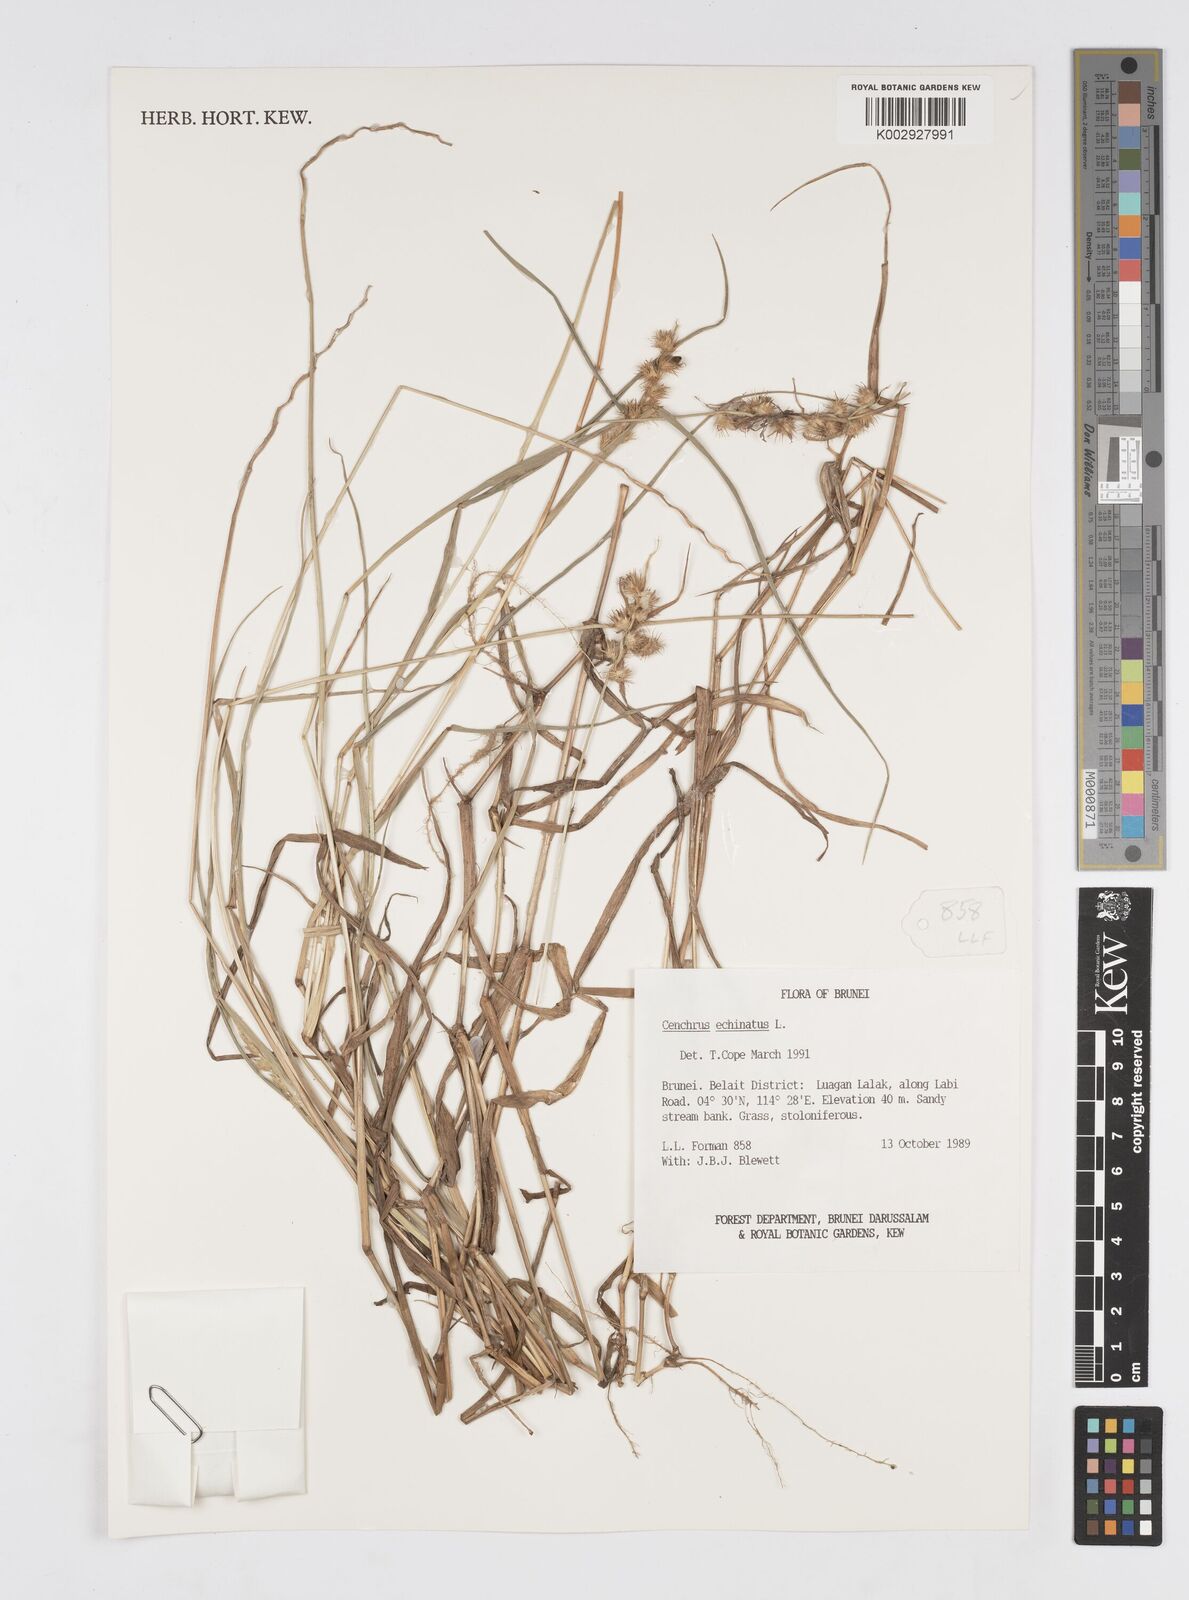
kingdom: Plantae
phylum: Tracheophyta
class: Liliopsida
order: Poales
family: Poaceae
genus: Cenchrus
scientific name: Cenchrus echinatus
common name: Southern sandbur
